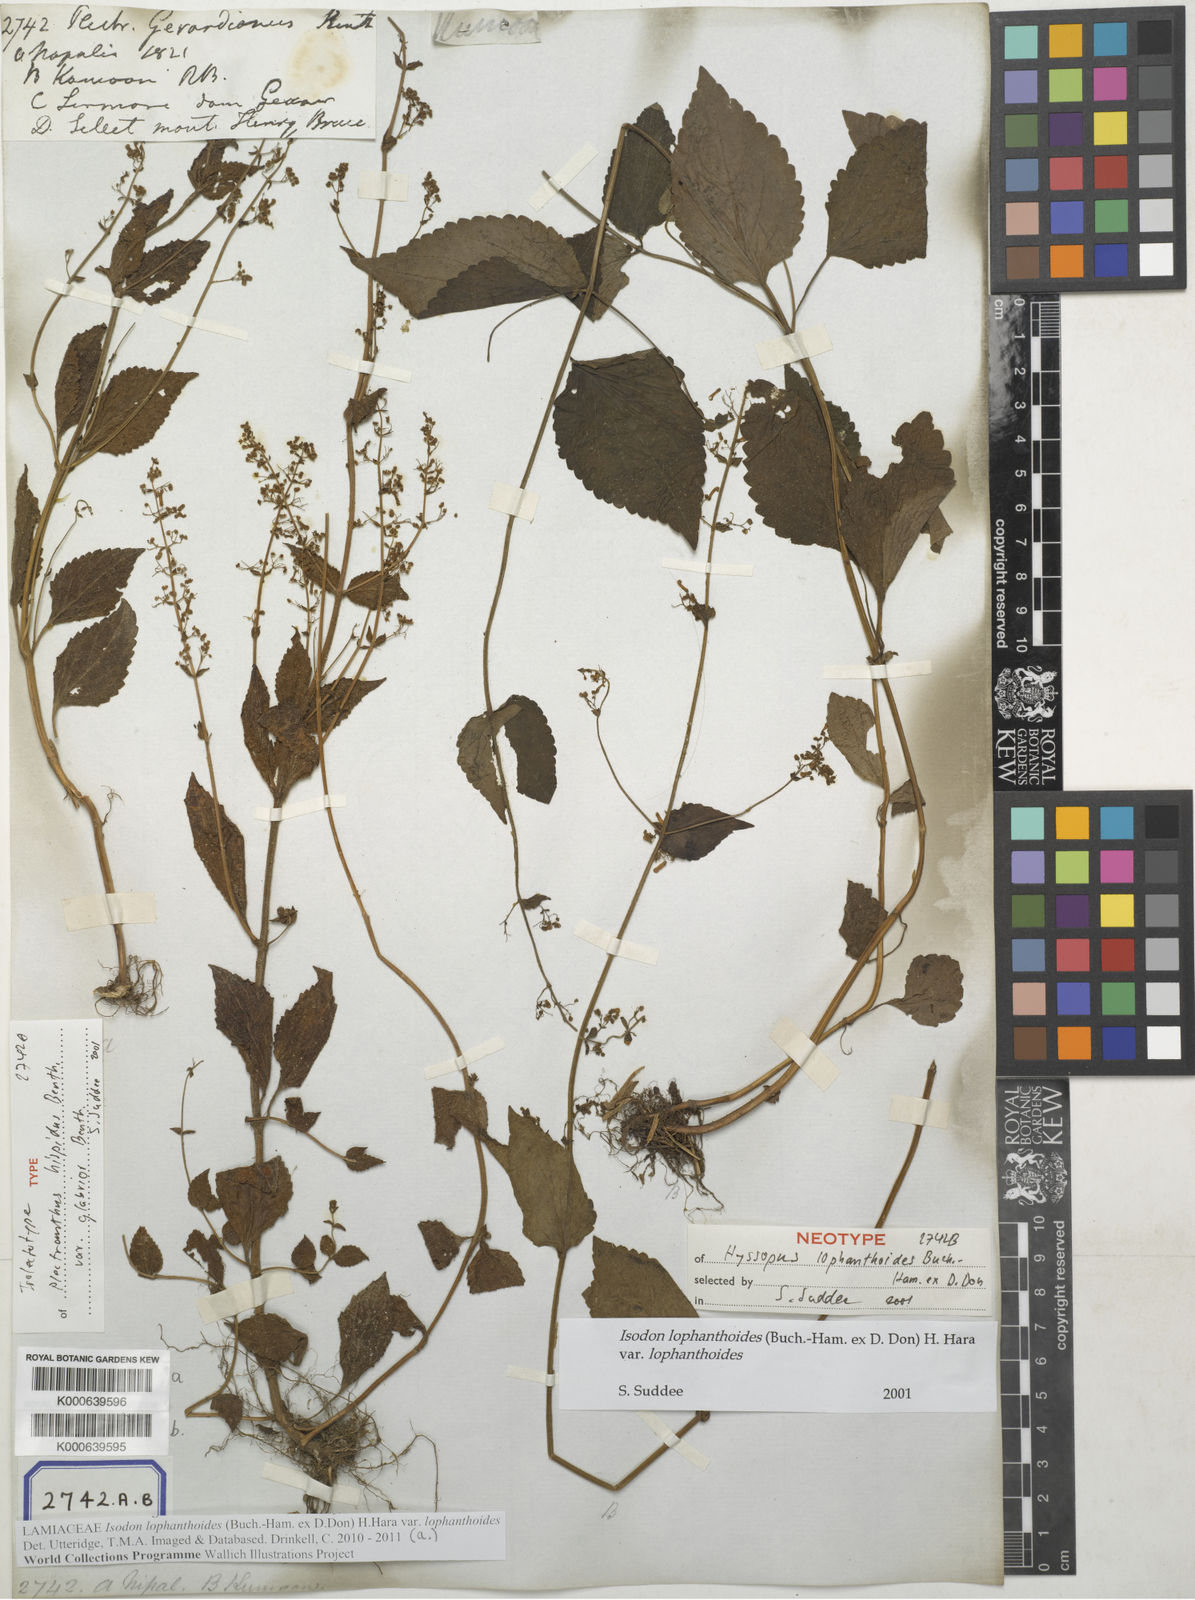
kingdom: Plantae
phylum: Tracheophyta
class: Magnoliopsida
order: Lamiales
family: Lamiaceae
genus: Isodon
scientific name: Isodon lophanthoides
